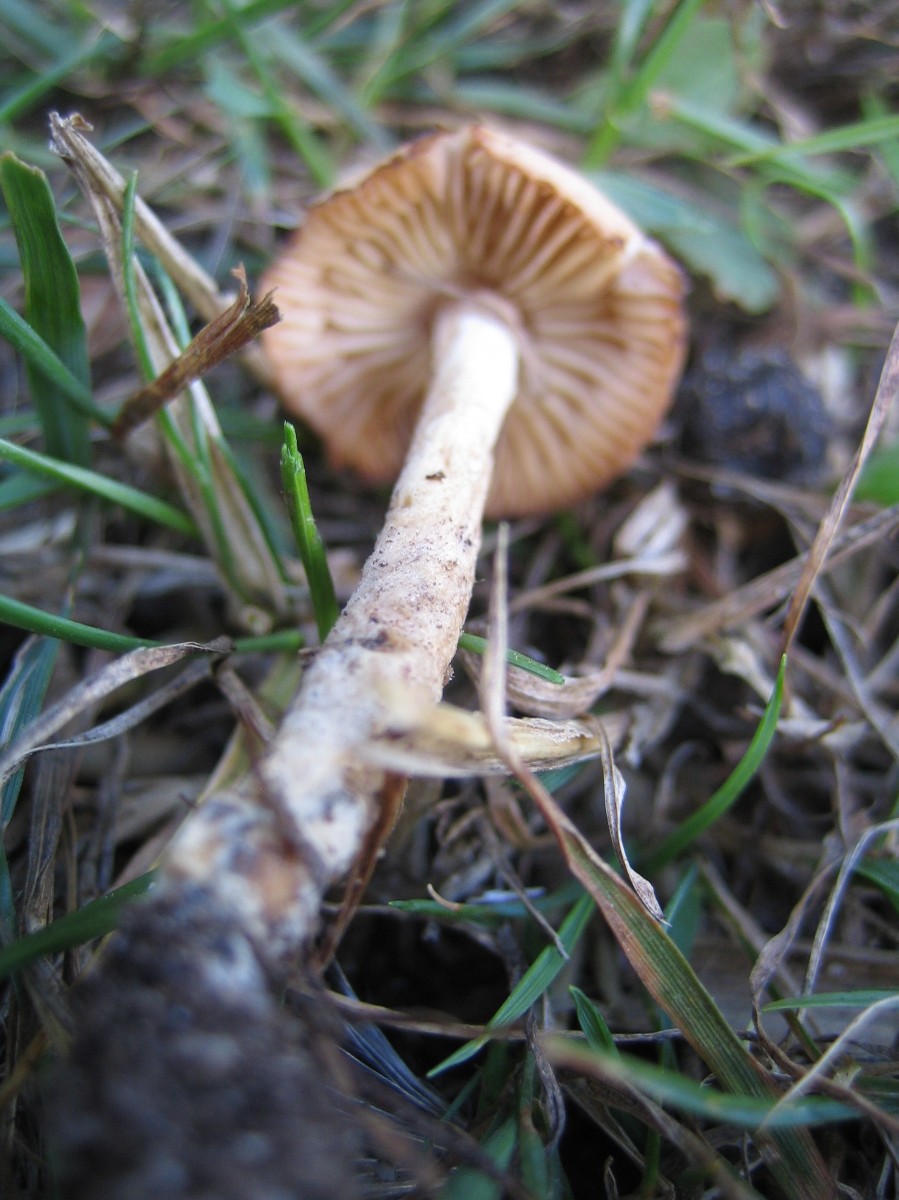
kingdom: Fungi
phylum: Basidiomycota
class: Agaricomycetes
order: Agaricales
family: Marasmiaceae
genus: Marasmius
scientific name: Marasmius oreades
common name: elledans-bruskhat
